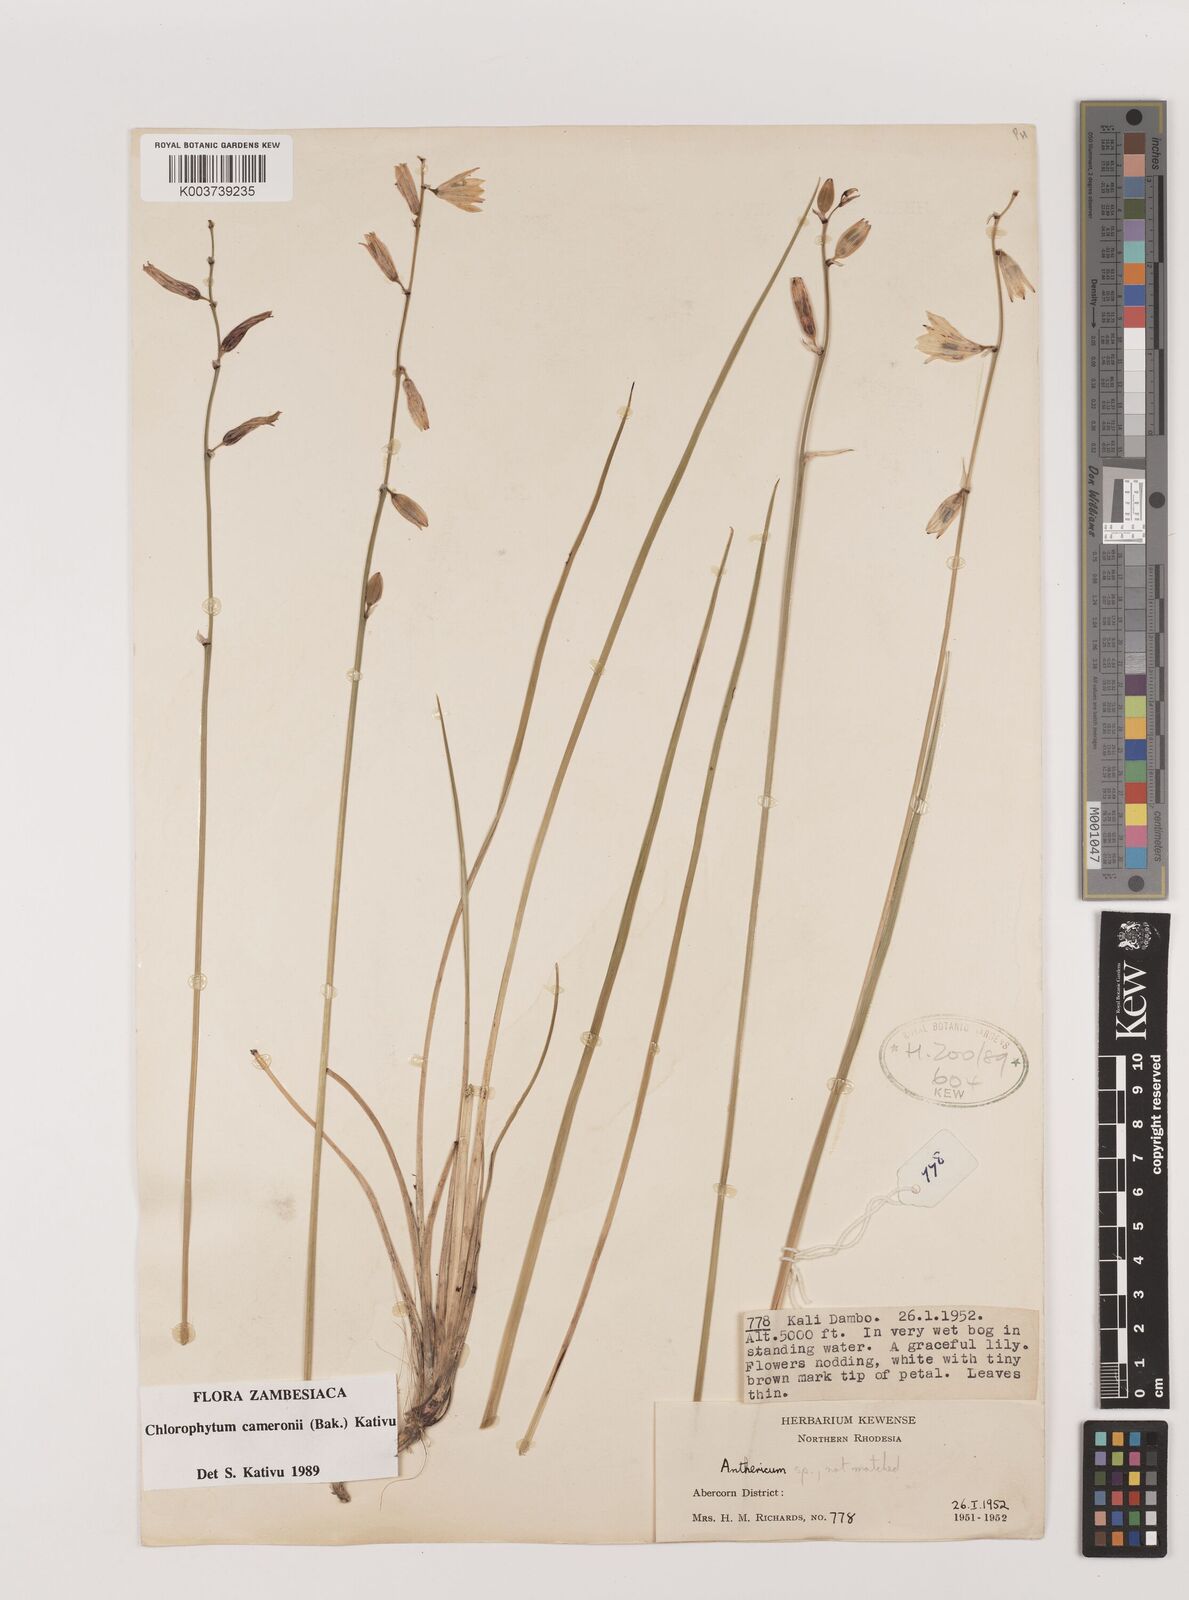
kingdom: Plantae
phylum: Tracheophyta
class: Liliopsida
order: Asparagales
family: Asparagaceae
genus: Chlorophytum
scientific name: Chlorophytum cameronii
